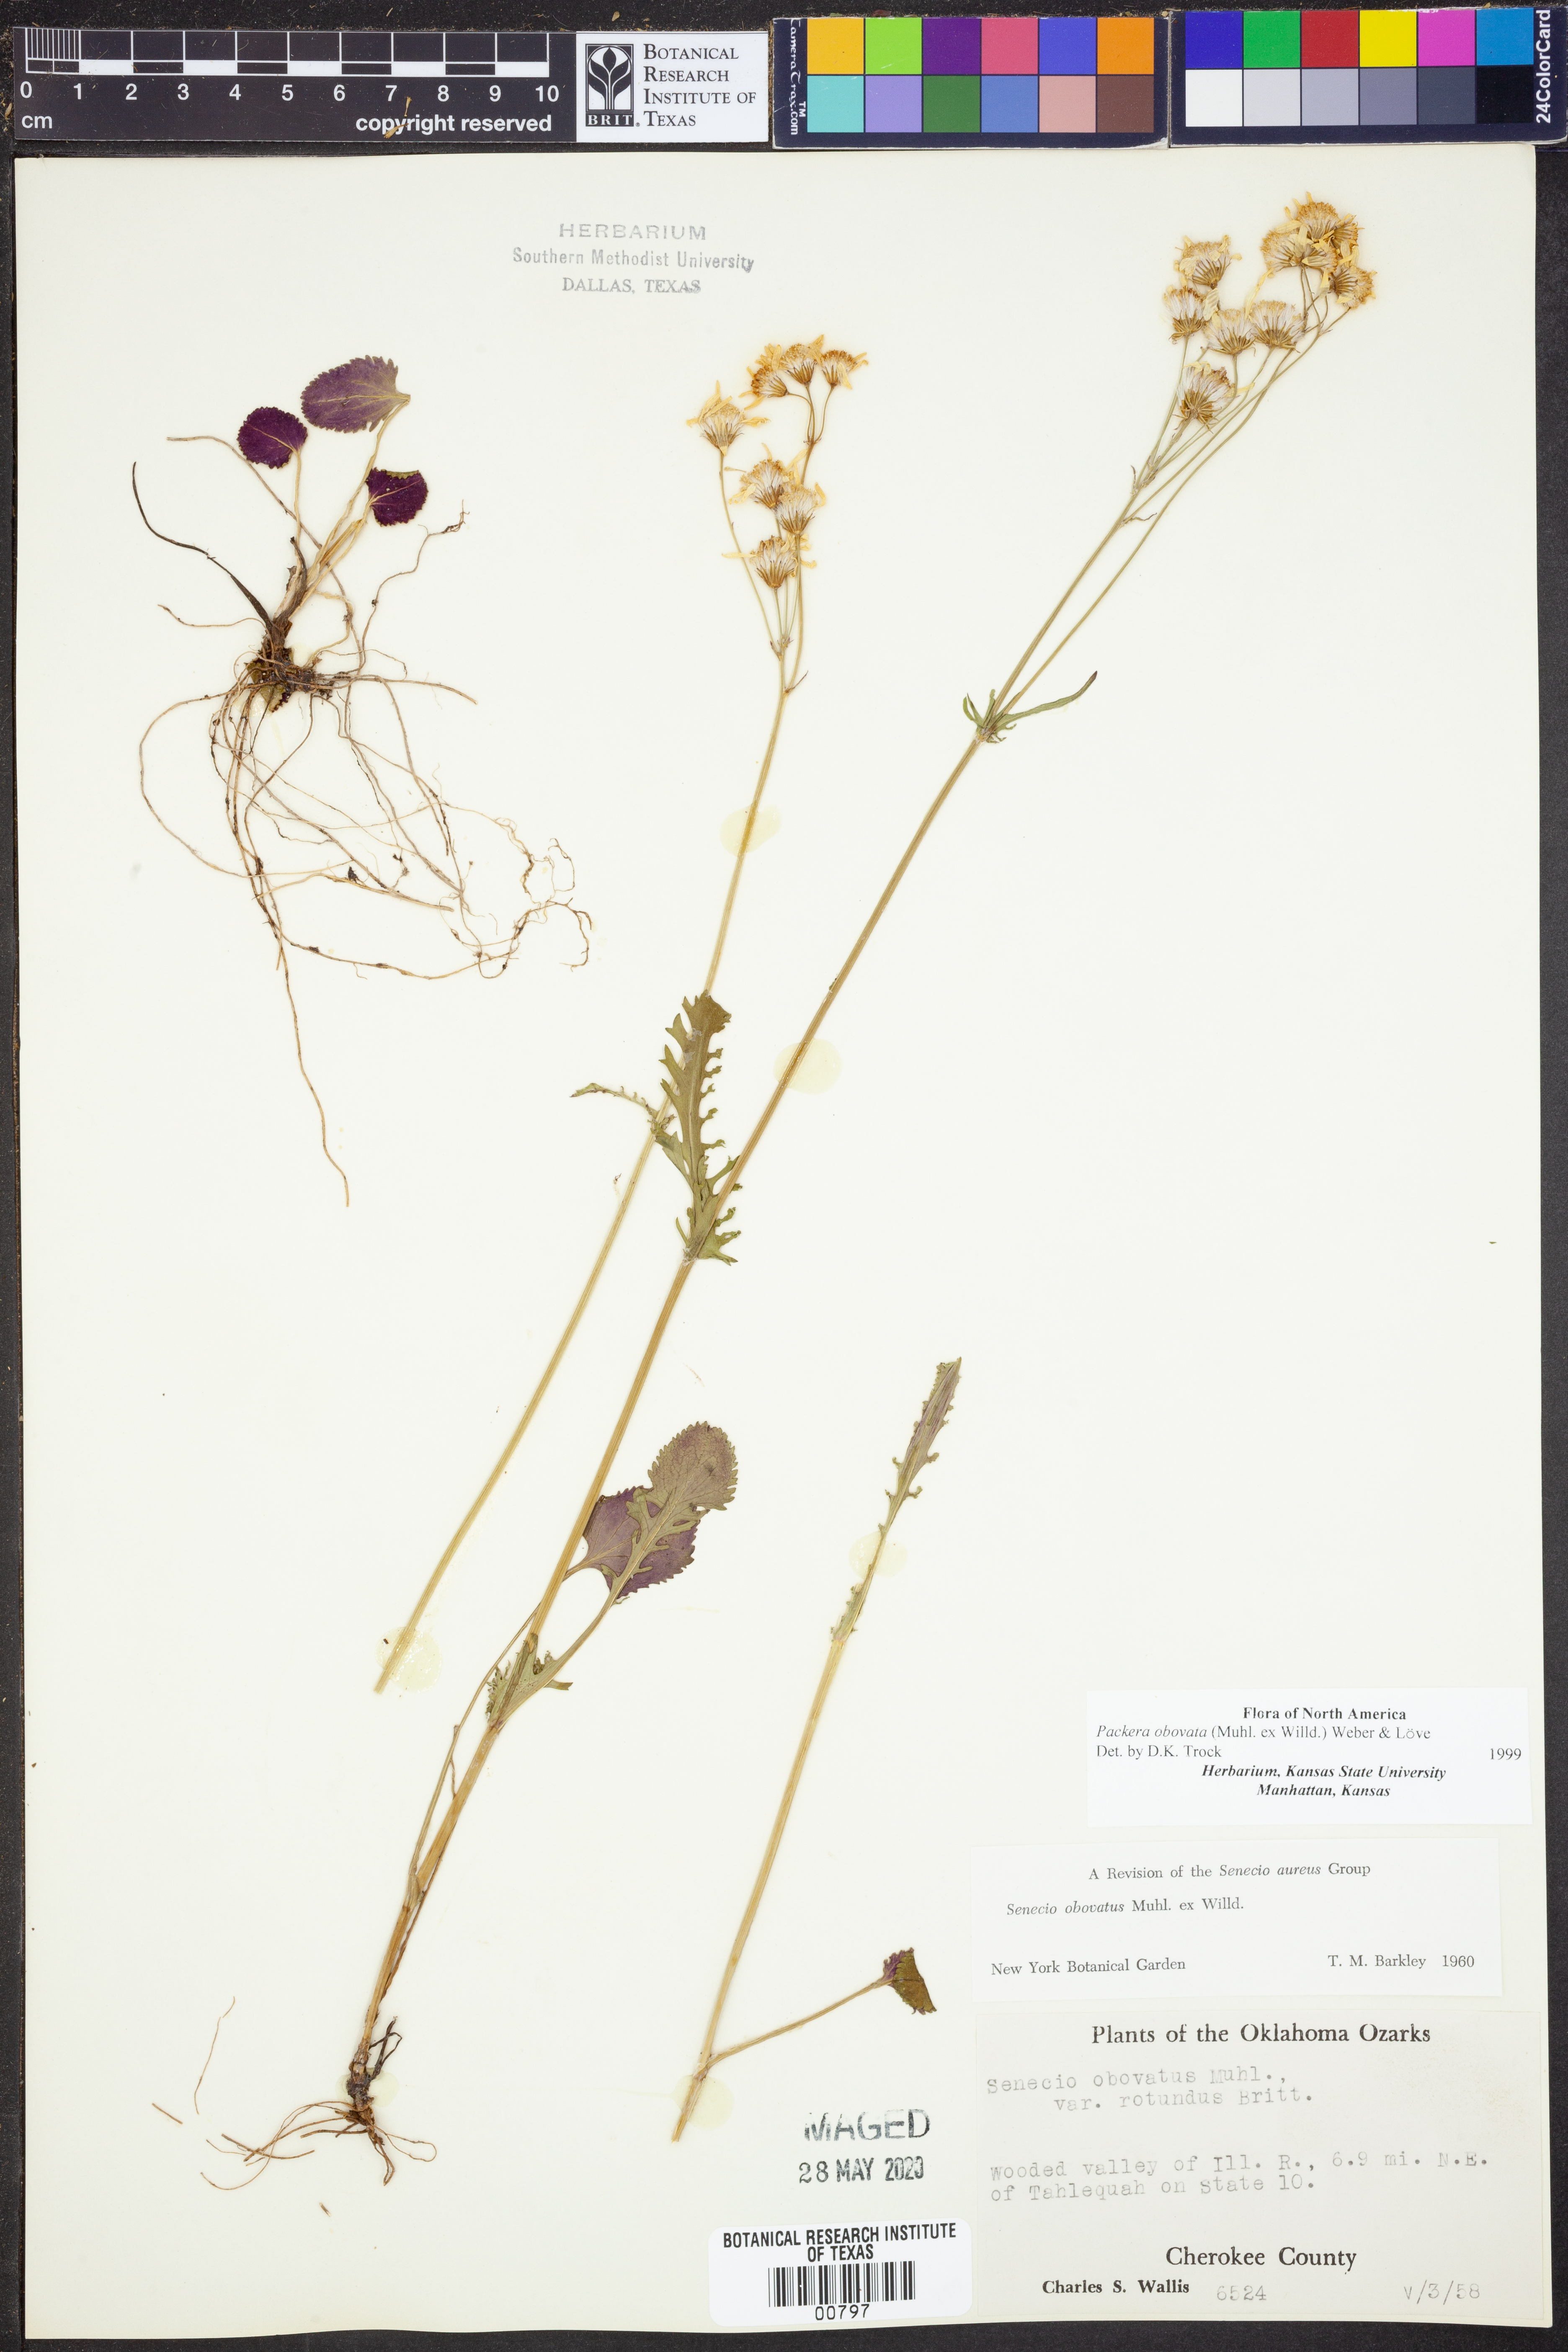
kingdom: Plantae
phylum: Tracheophyta
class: Magnoliopsida
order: Asterales
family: Asteraceae
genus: Packera
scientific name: Packera obovata
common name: Round-leaf ragwort
